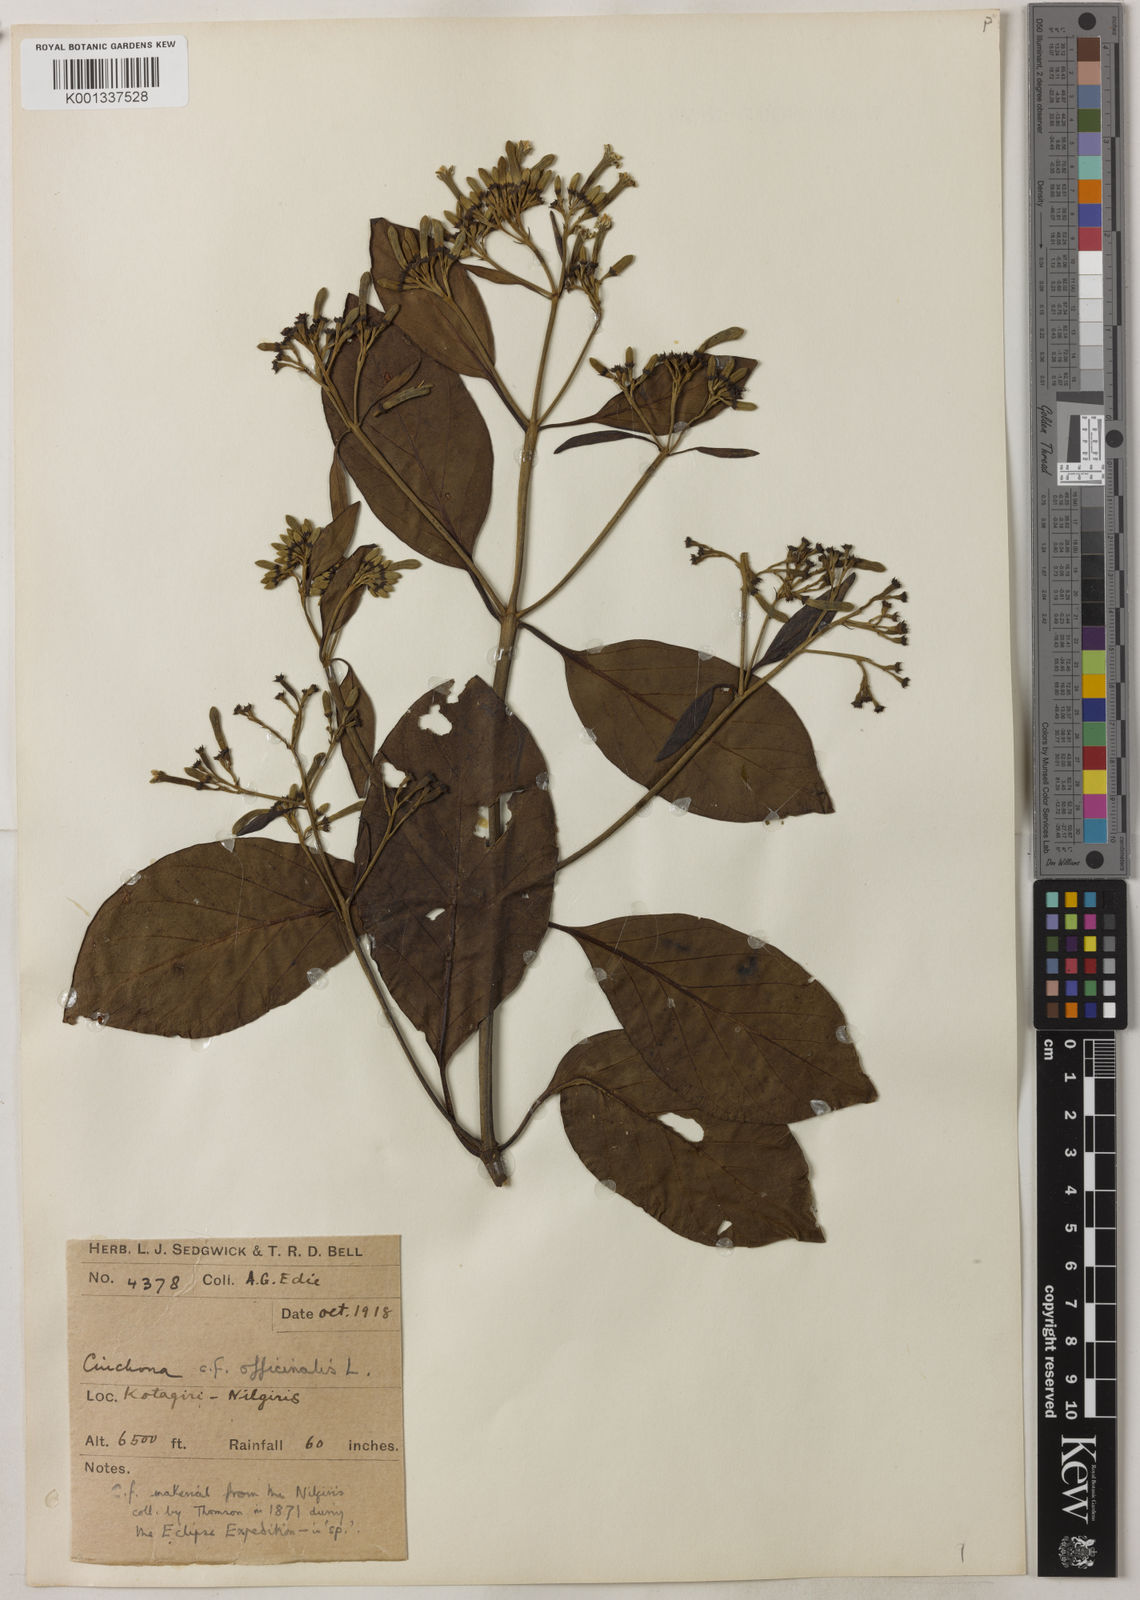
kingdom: Plantae
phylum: Tracheophyta
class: Magnoliopsida
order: Gentianales
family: Rubiaceae
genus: Cinchona
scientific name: Cinchona officinalis
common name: Lojabark
